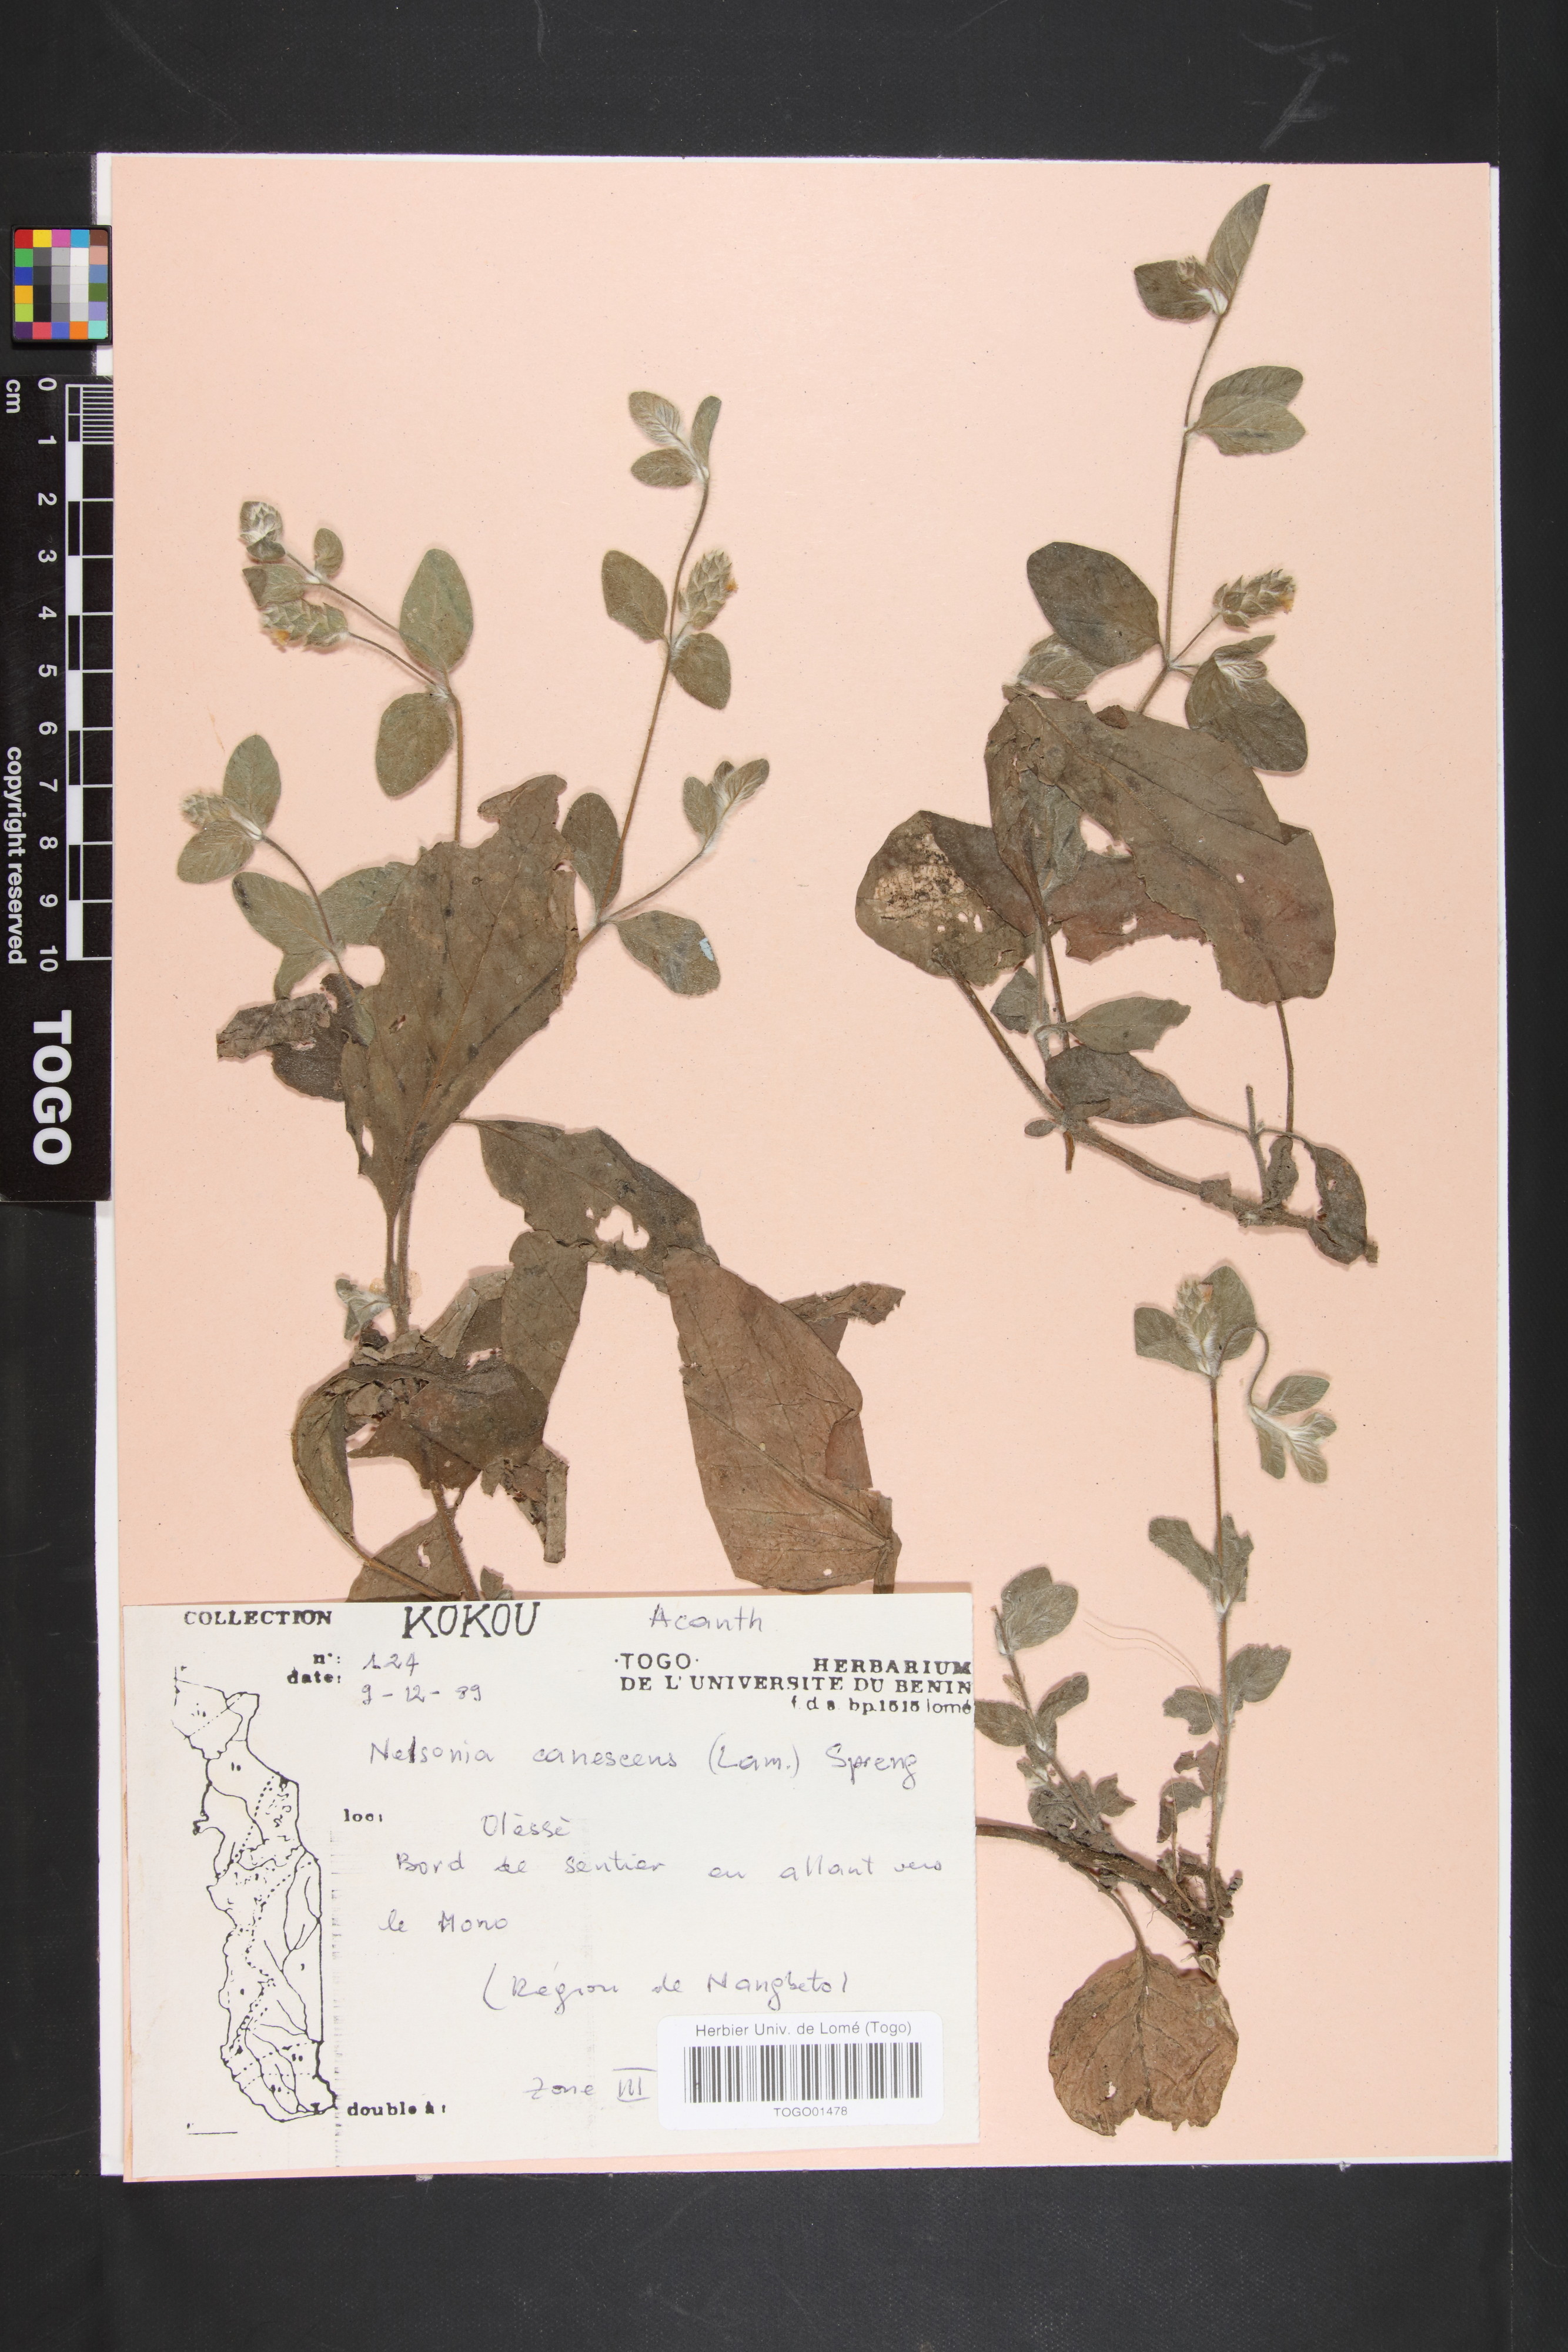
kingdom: Plantae
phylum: Tracheophyta
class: Magnoliopsida
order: Lamiales
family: Acanthaceae
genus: Nelsonia
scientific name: Nelsonia canescens
